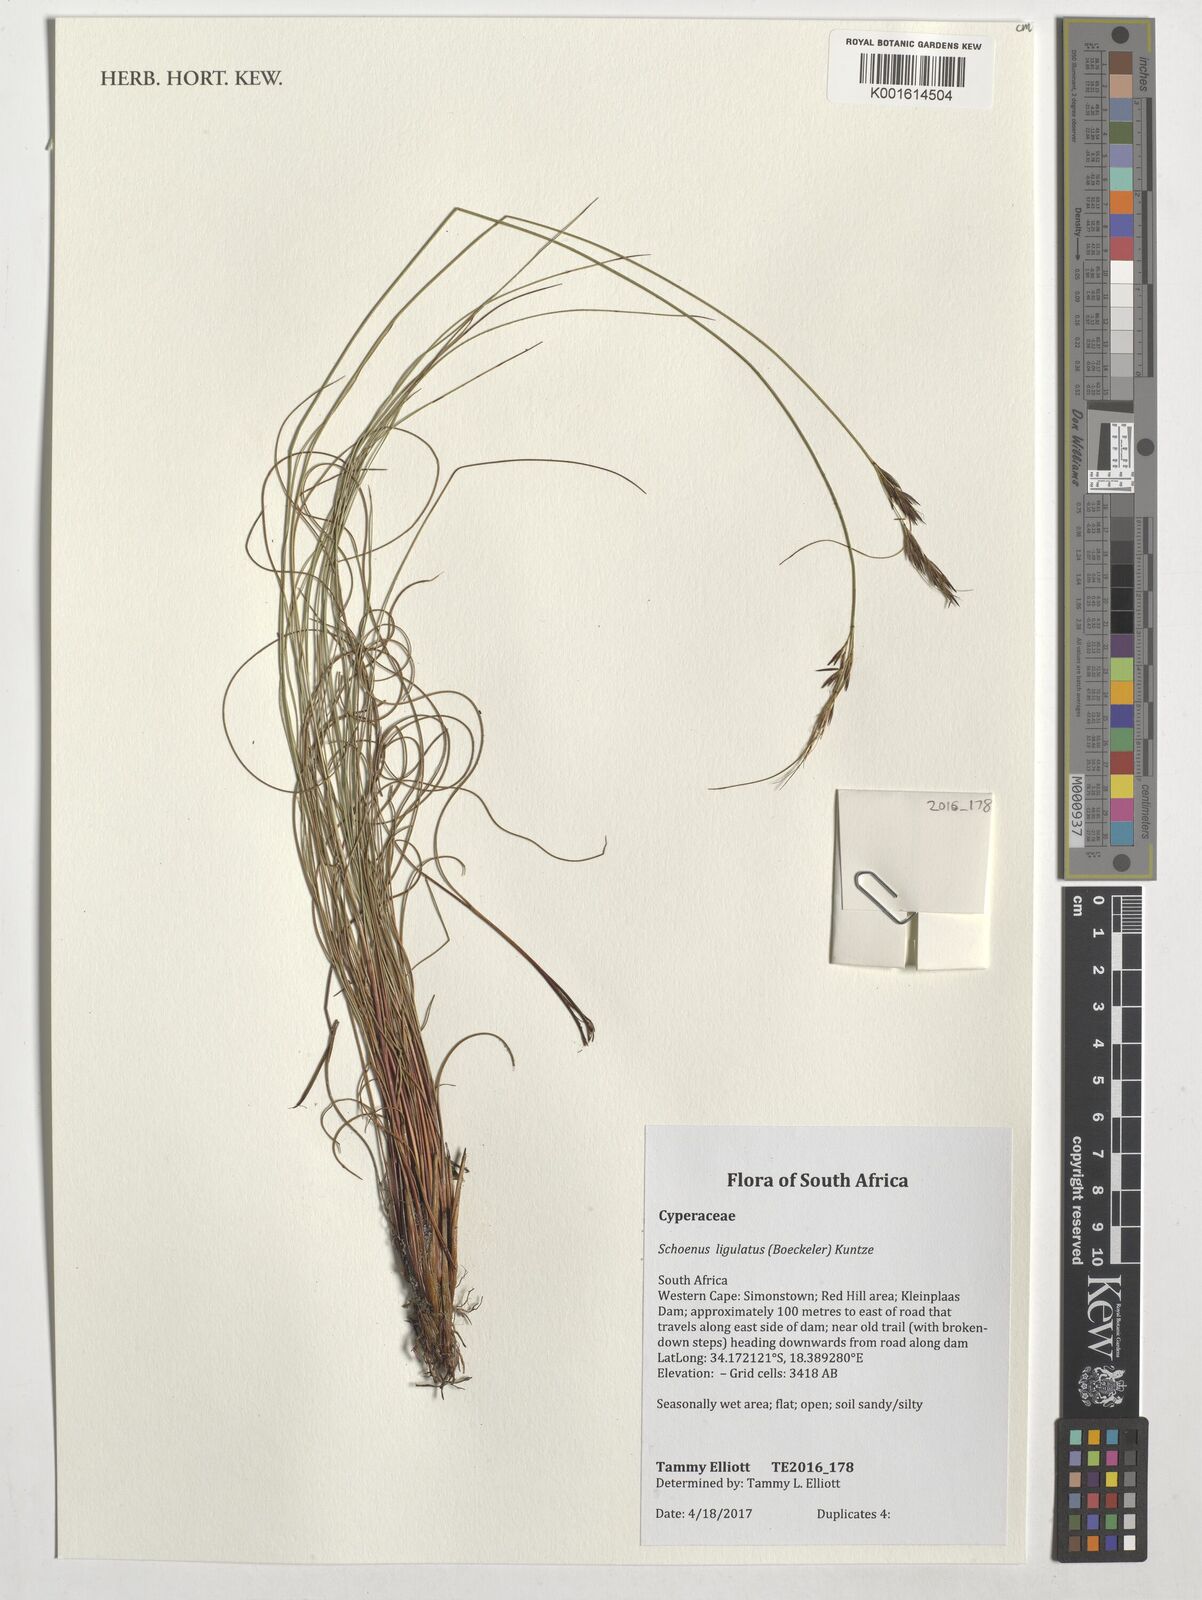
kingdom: Plantae
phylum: Tracheophyta
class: Liliopsida
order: Poales
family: Cyperaceae
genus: Schoenus
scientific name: Schoenus ligulatus
